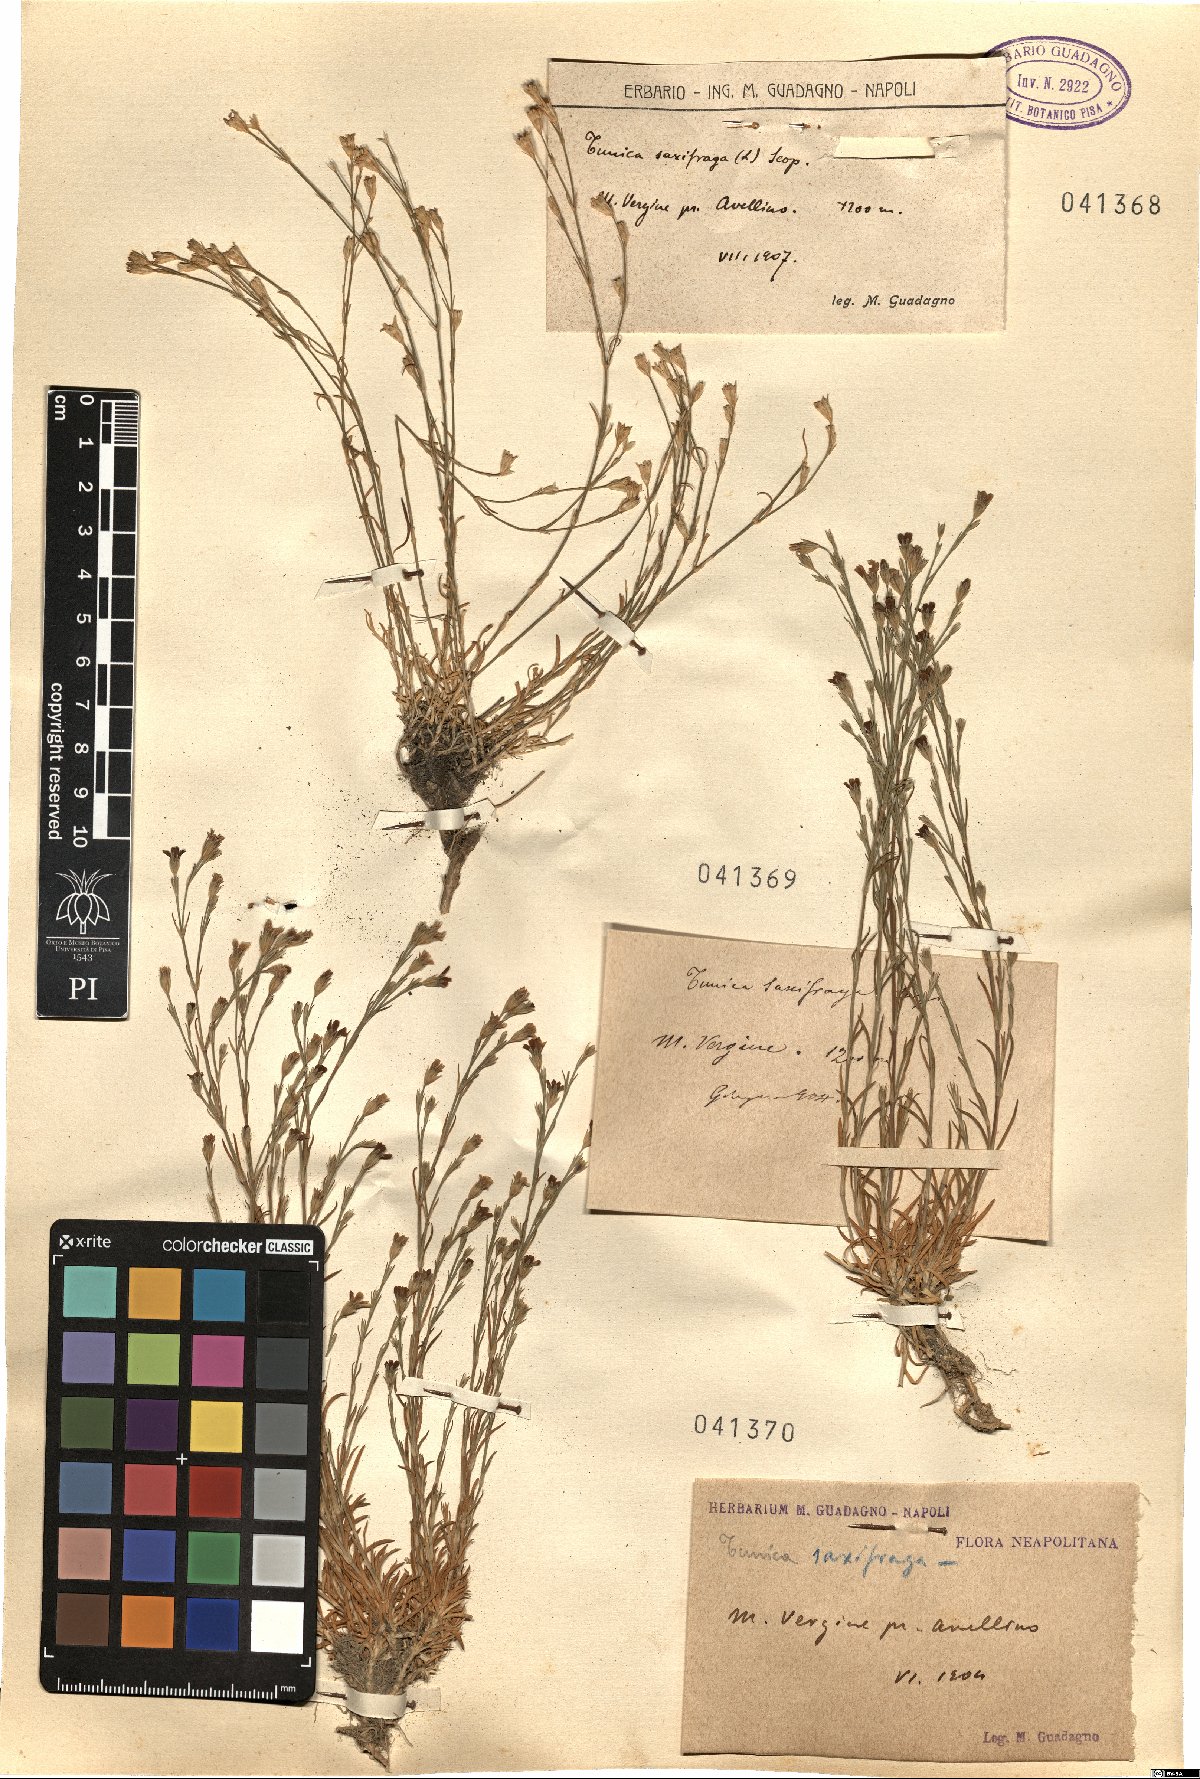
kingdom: Plantae
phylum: Tracheophyta
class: Magnoliopsida
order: Caryophyllales
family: Caryophyllaceae
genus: Petrorhagia
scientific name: Petrorhagia saxifraga
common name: Tunicflower
